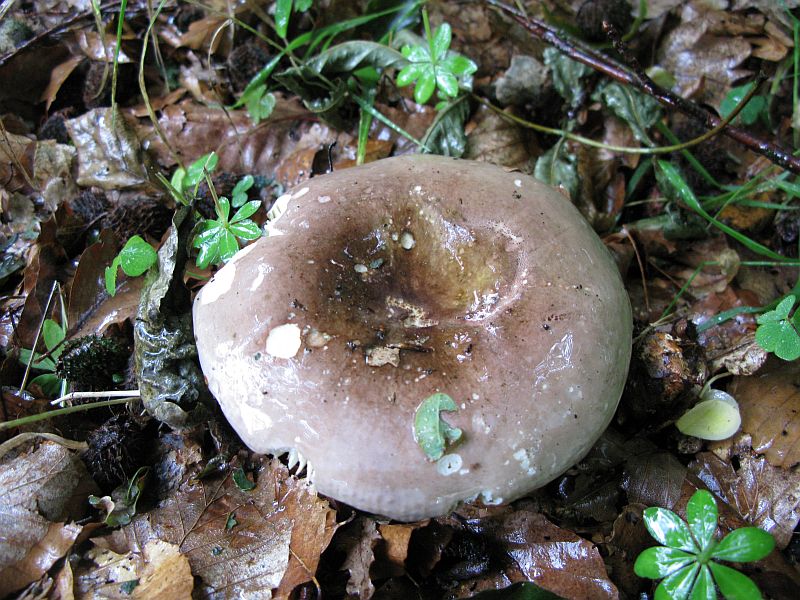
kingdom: Fungi
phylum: Basidiomycota
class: Agaricomycetes
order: Russulales
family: Russulaceae
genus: Russula
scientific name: Russula olivacea
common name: stor skørhat
